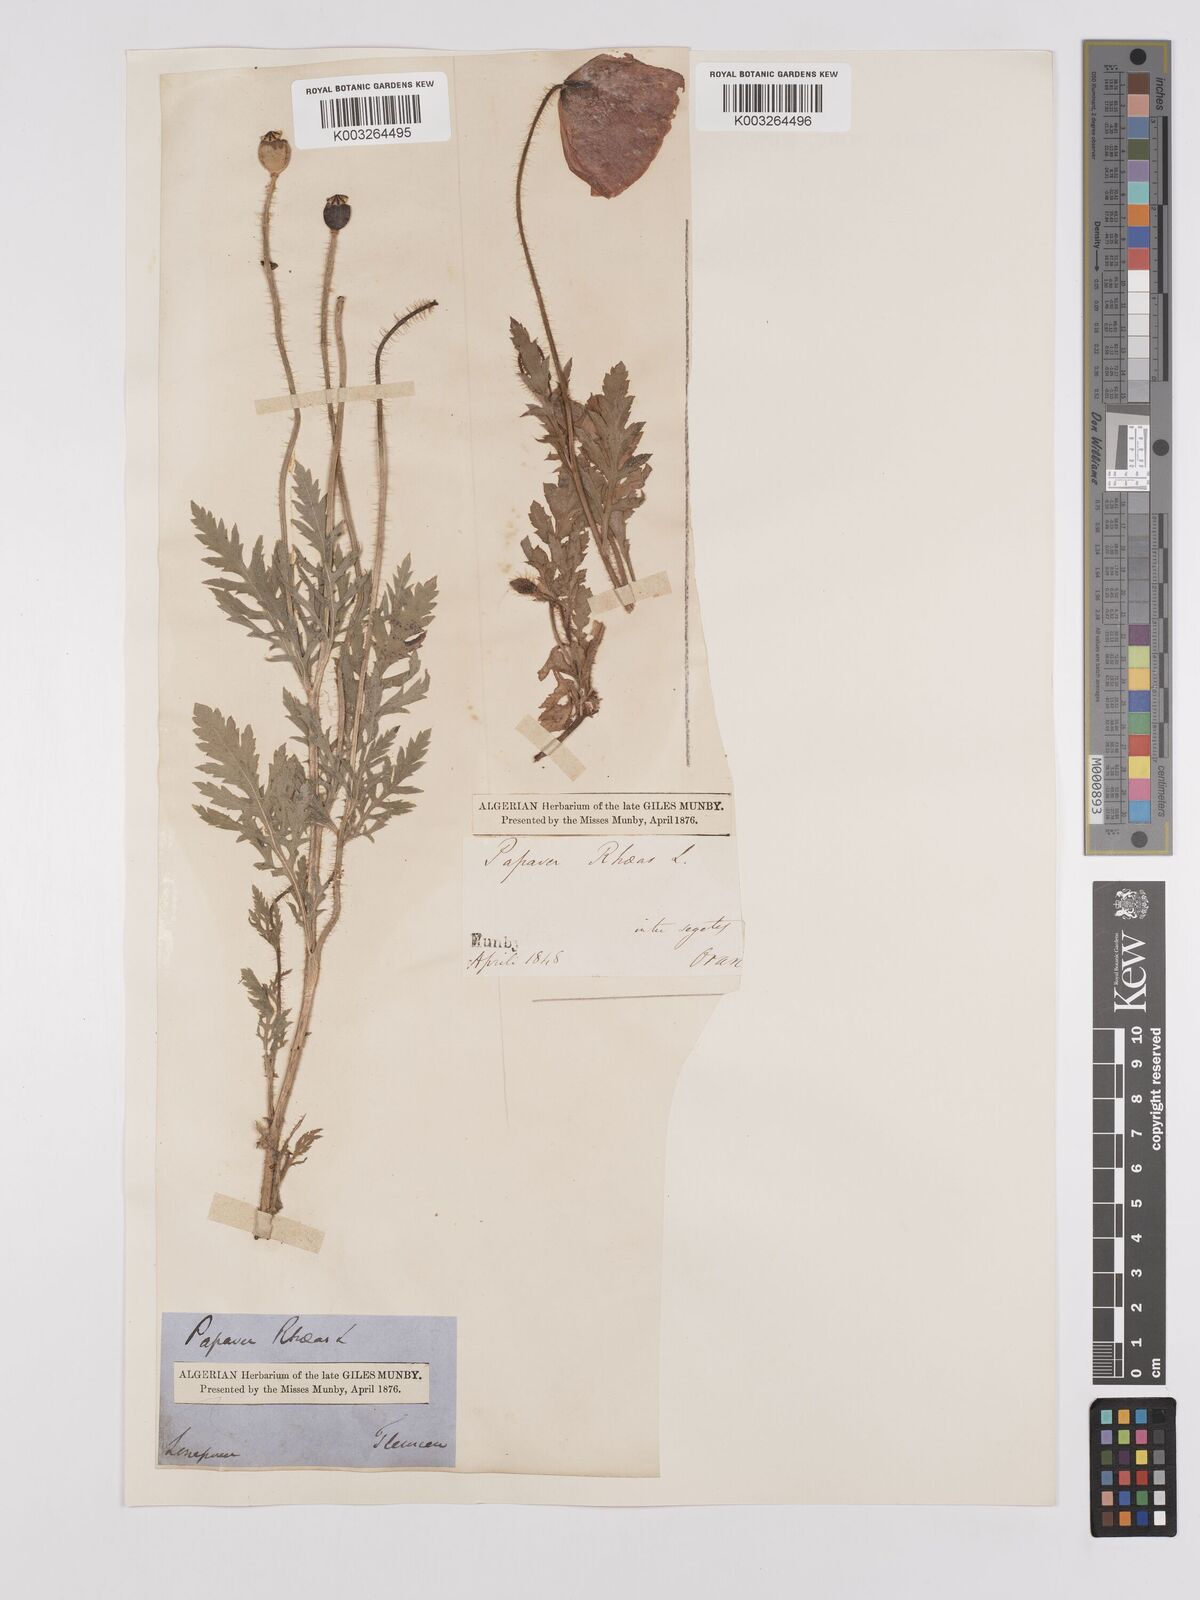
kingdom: Plantae
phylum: Tracheophyta
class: Magnoliopsida
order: Ranunculales
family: Papaveraceae
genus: Papaver
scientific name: Papaver rhoeas
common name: Corn poppy
